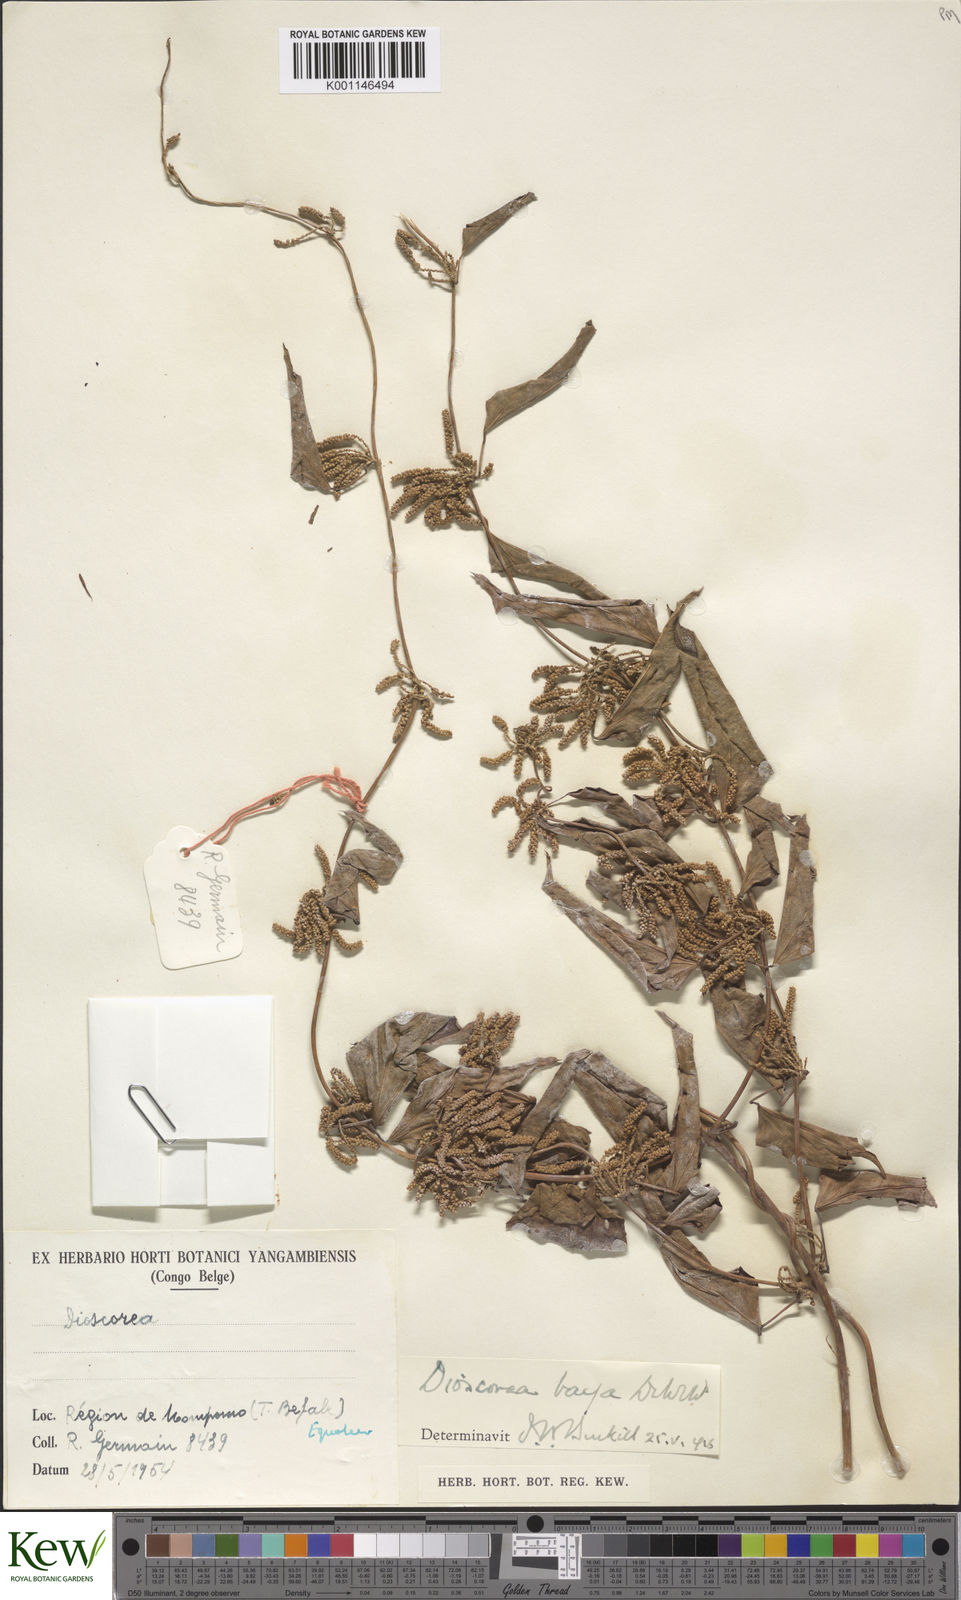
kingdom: Plantae
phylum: Tracheophyta
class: Liliopsida
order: Dioscoreales
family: Dioscoreaceae
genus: Dioscorea
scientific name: Dioscorea baya
